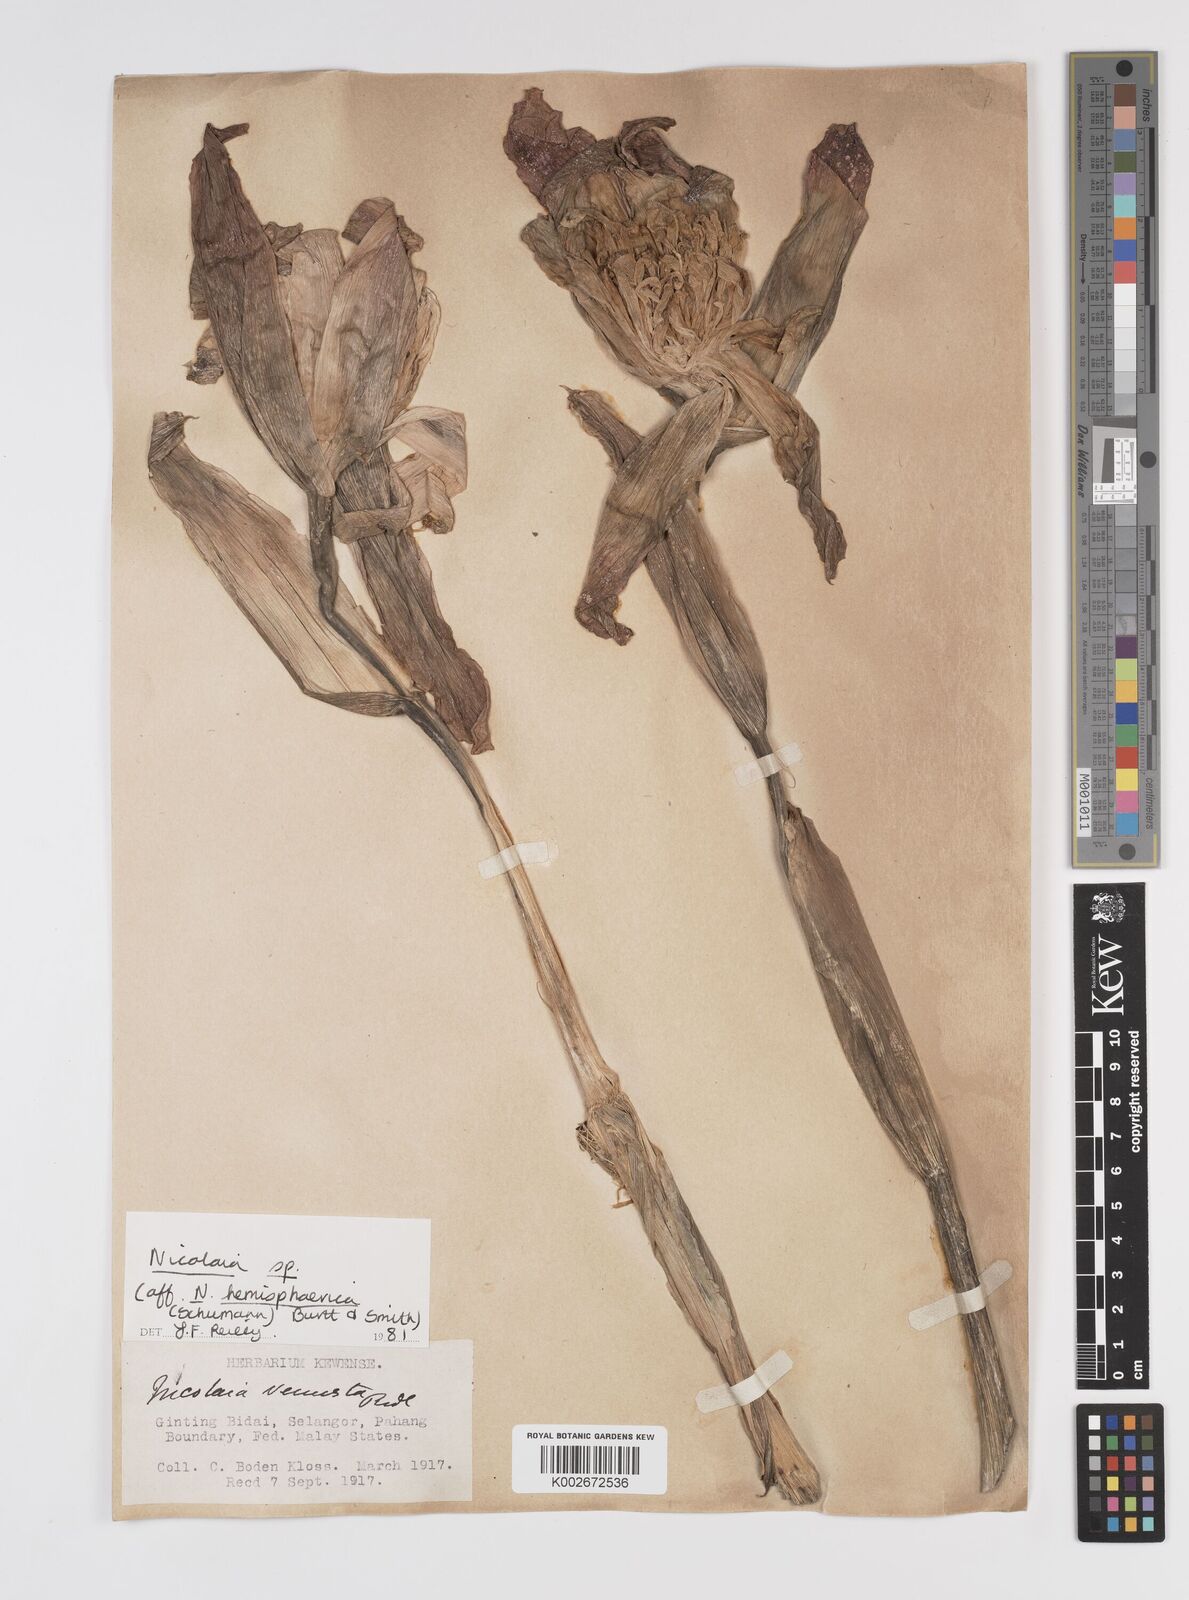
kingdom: Plantae
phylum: Tracheophyta
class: Liliopsida
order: Zingiberales
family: Zingiberaceae
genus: Etlingera
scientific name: Etlingera
